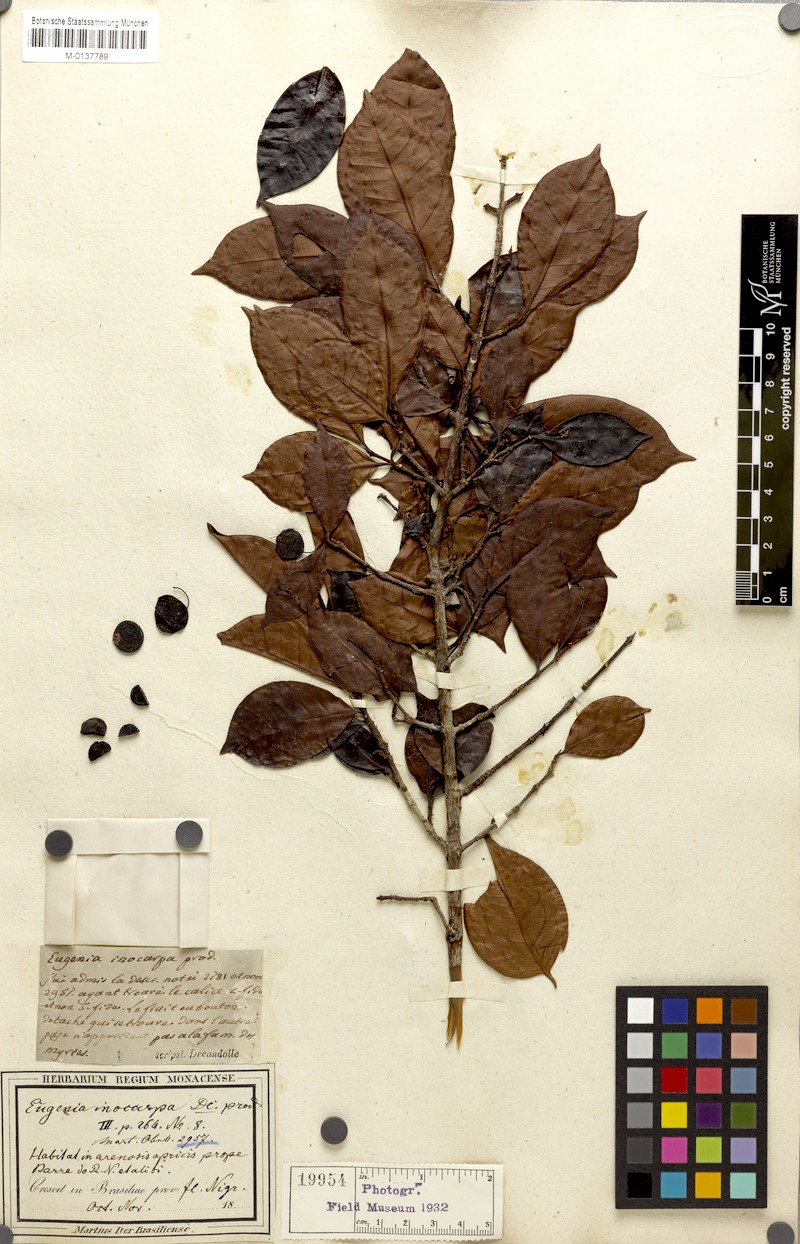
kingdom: Plantae
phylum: Tracheophyta
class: Magnoliopsida
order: Myrtales
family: Myrtaceae
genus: Eugenia
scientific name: Eugenia patrisii
